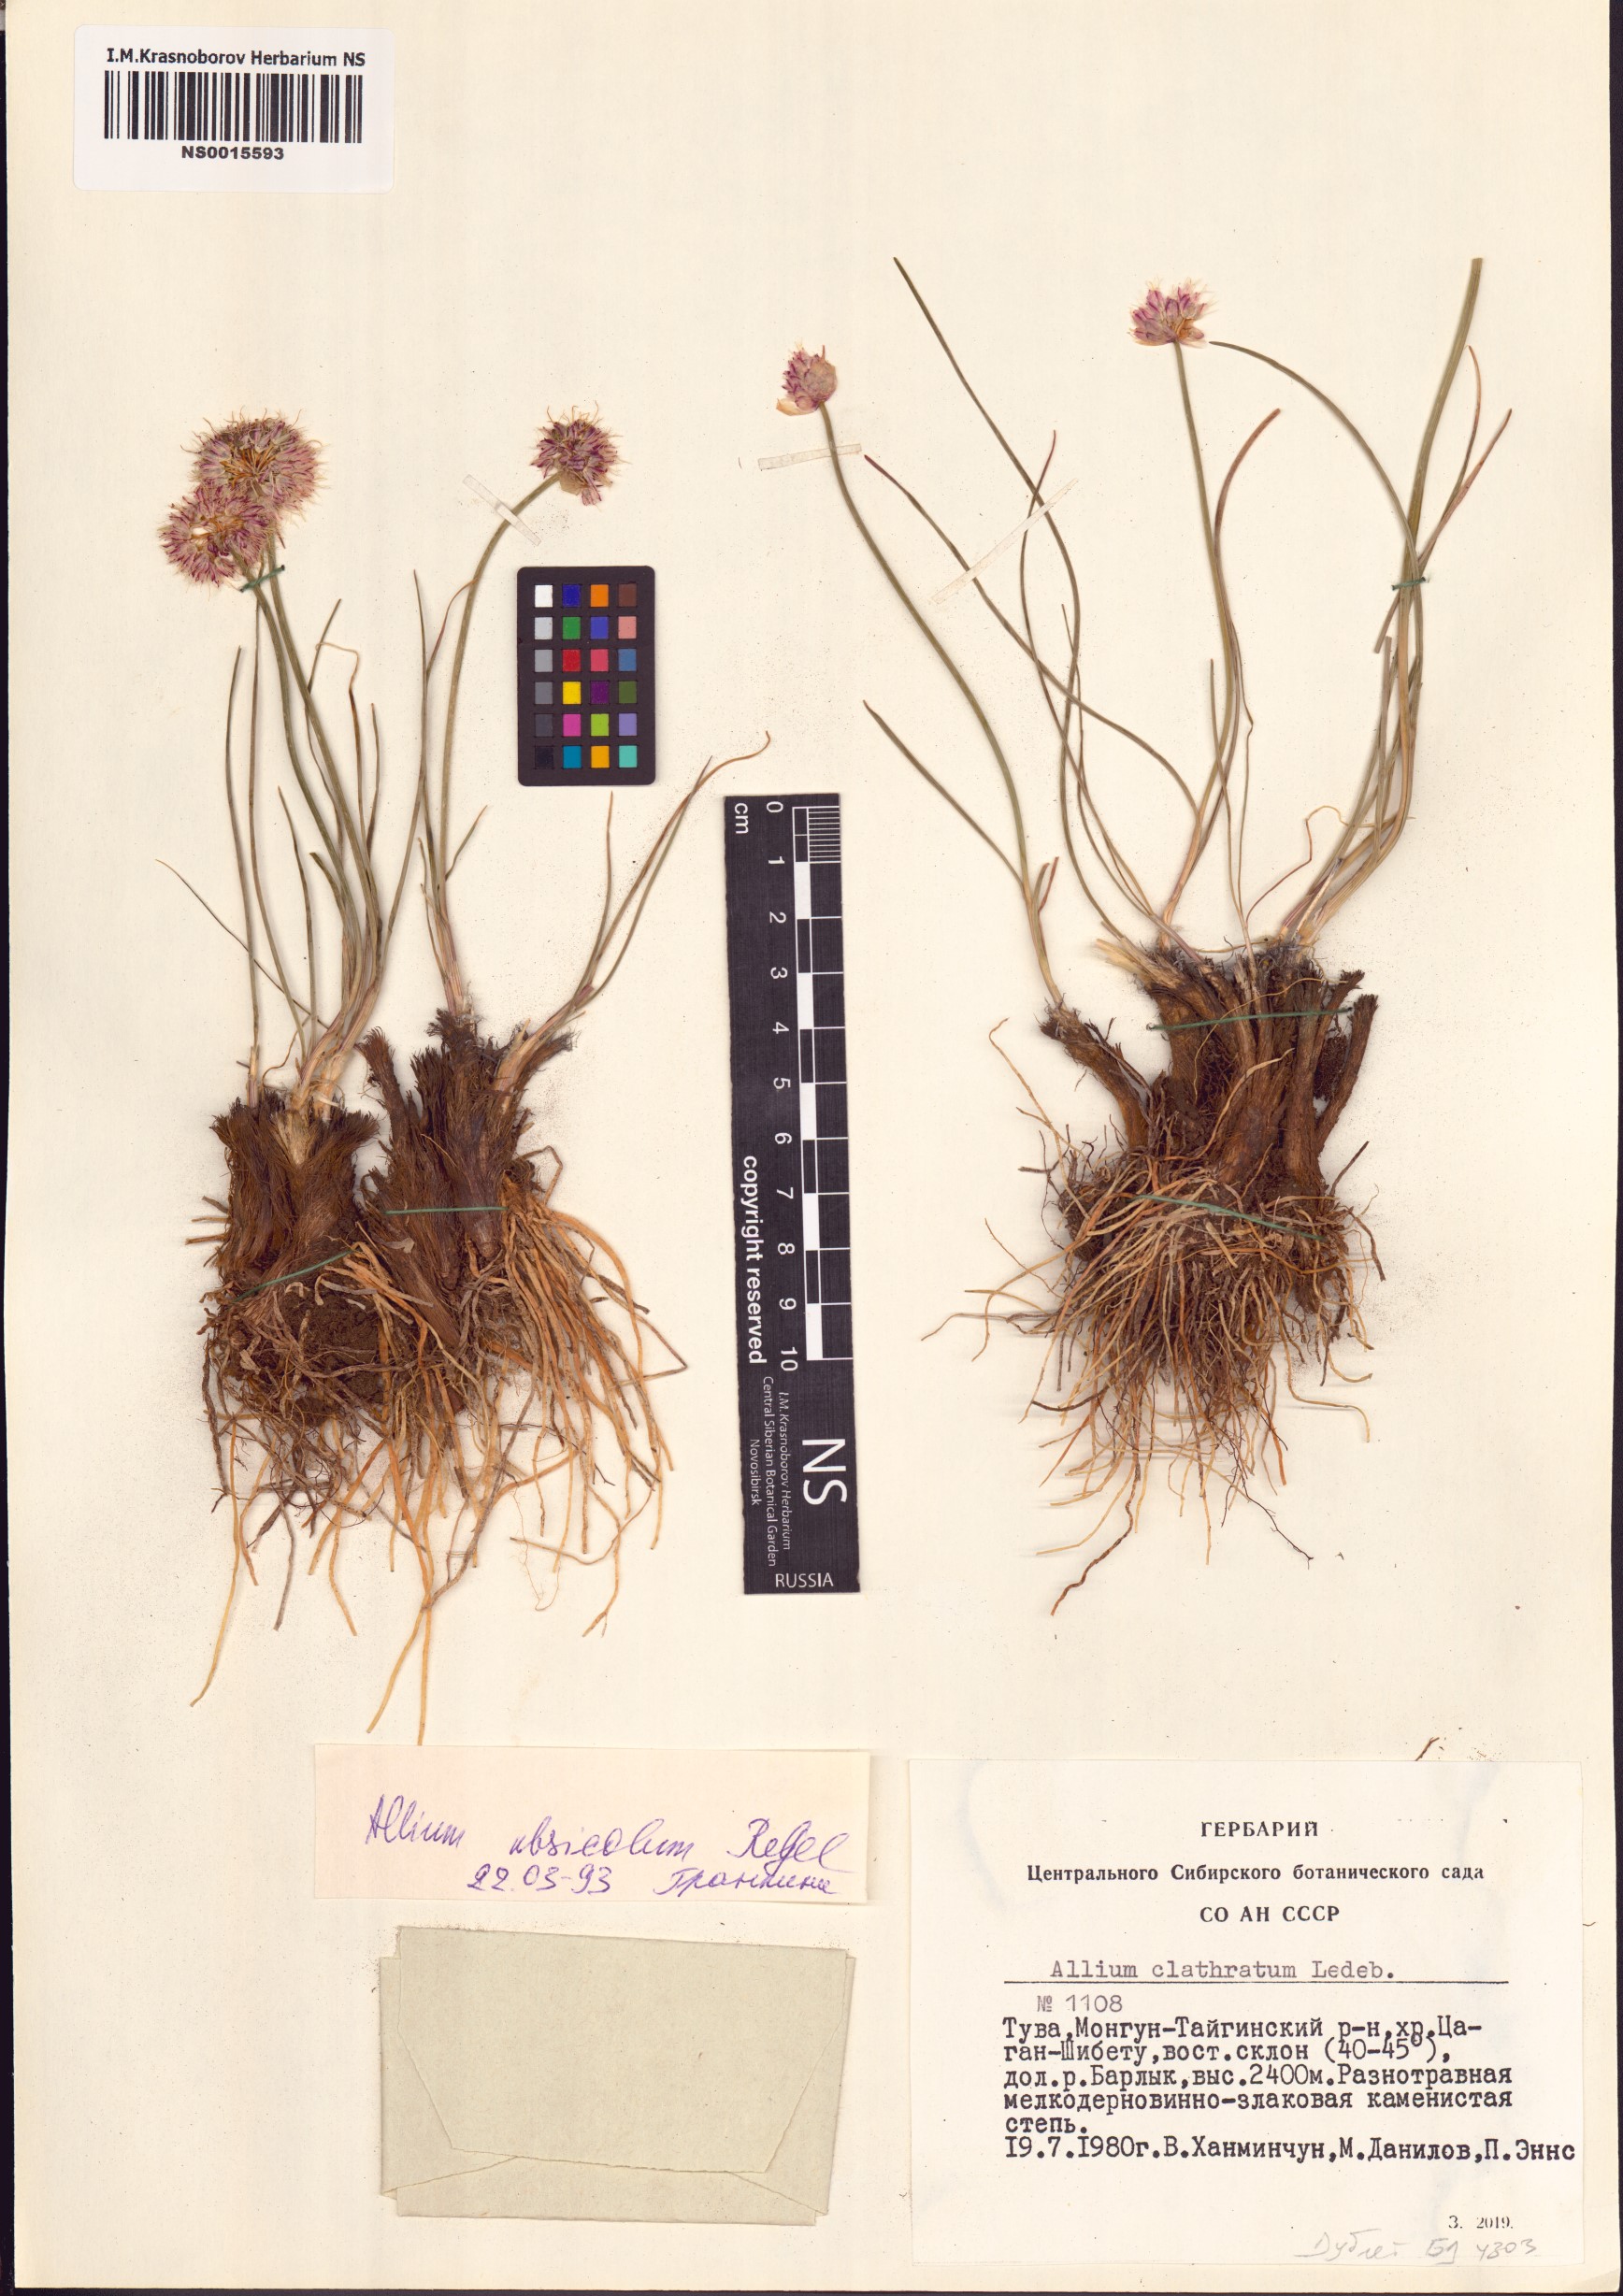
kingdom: Plantae
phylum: Tracheophyta
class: Liliopsida
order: Asparagales
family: Amaryllidaceae
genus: Allium
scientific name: Allium ubsicola
